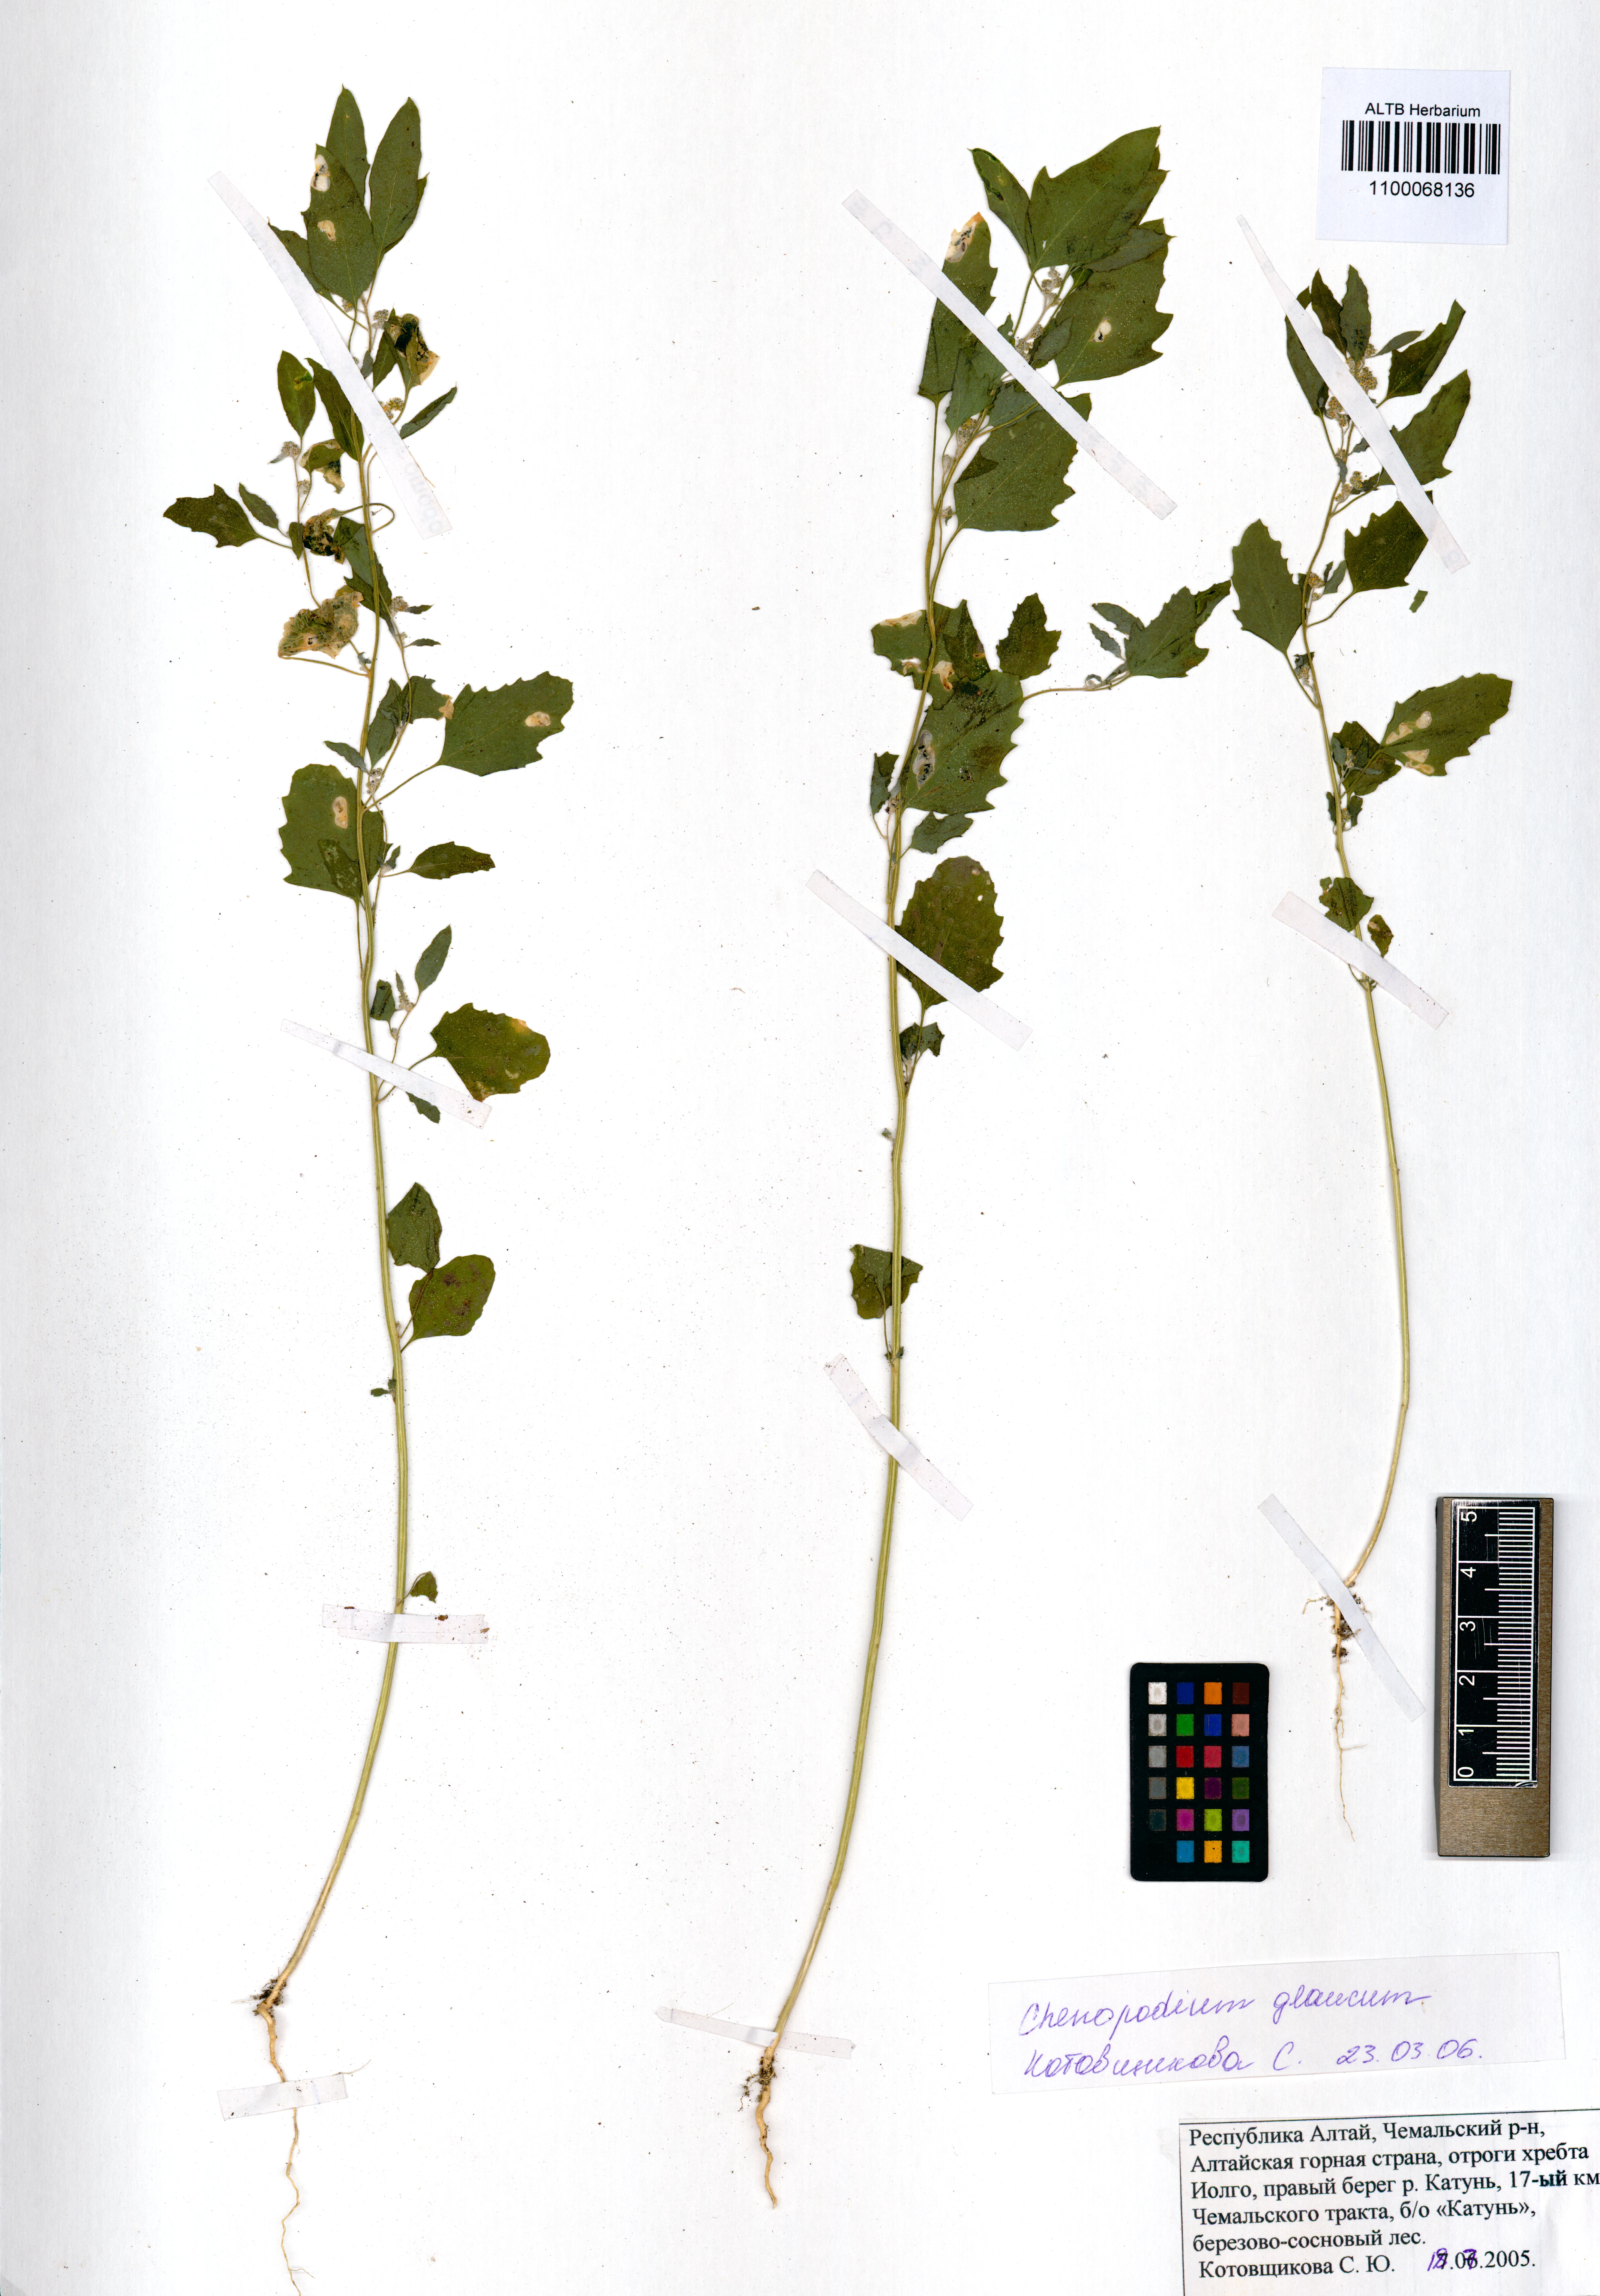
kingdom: Plantae
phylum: Tracheophyta
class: Magnoliopsida
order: Caryophyllales
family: Amaranthaceae
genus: Oxybasis
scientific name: Oxybasis glauca
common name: Glaucous goosefoot
